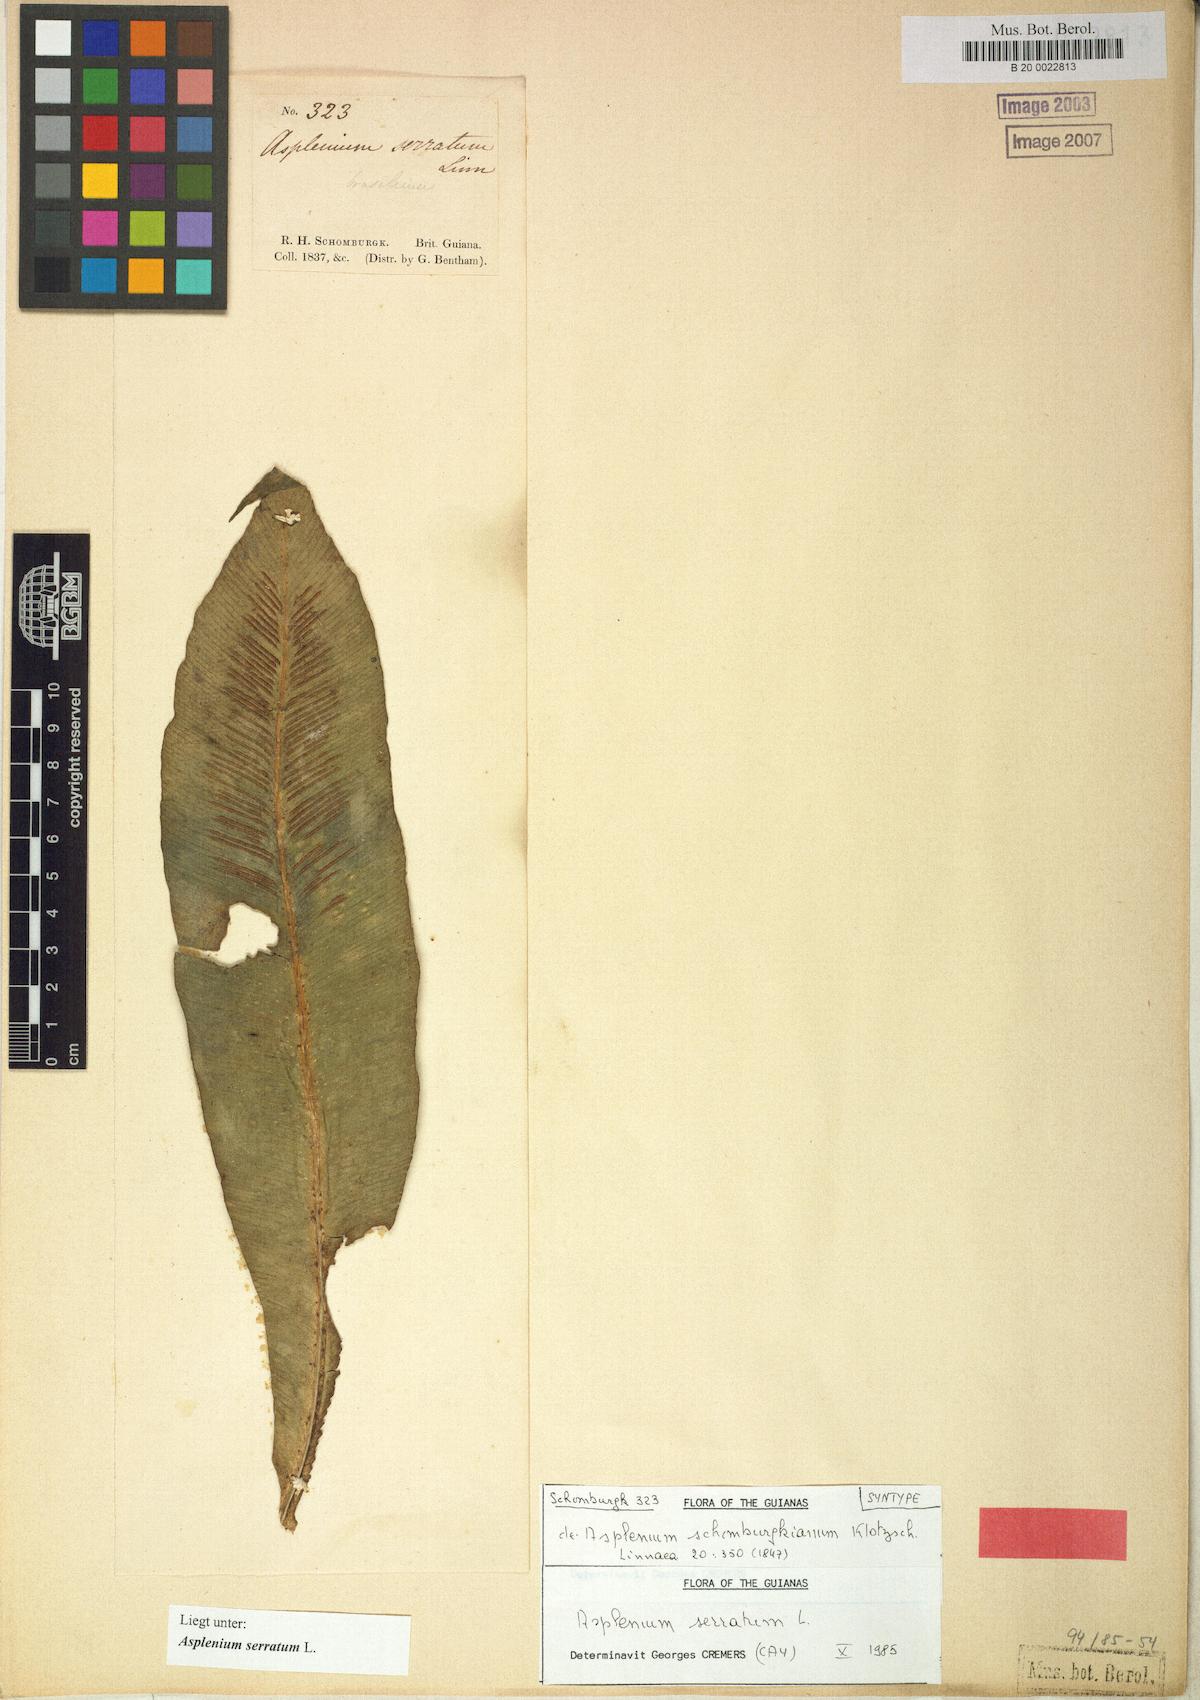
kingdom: Plantae
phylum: Tracheophyta
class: Polypodiopsida
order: Polypodiales
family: Aspleniaceae
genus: Asplenium
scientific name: Asplenium serratum
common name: Wild birdnest fern
